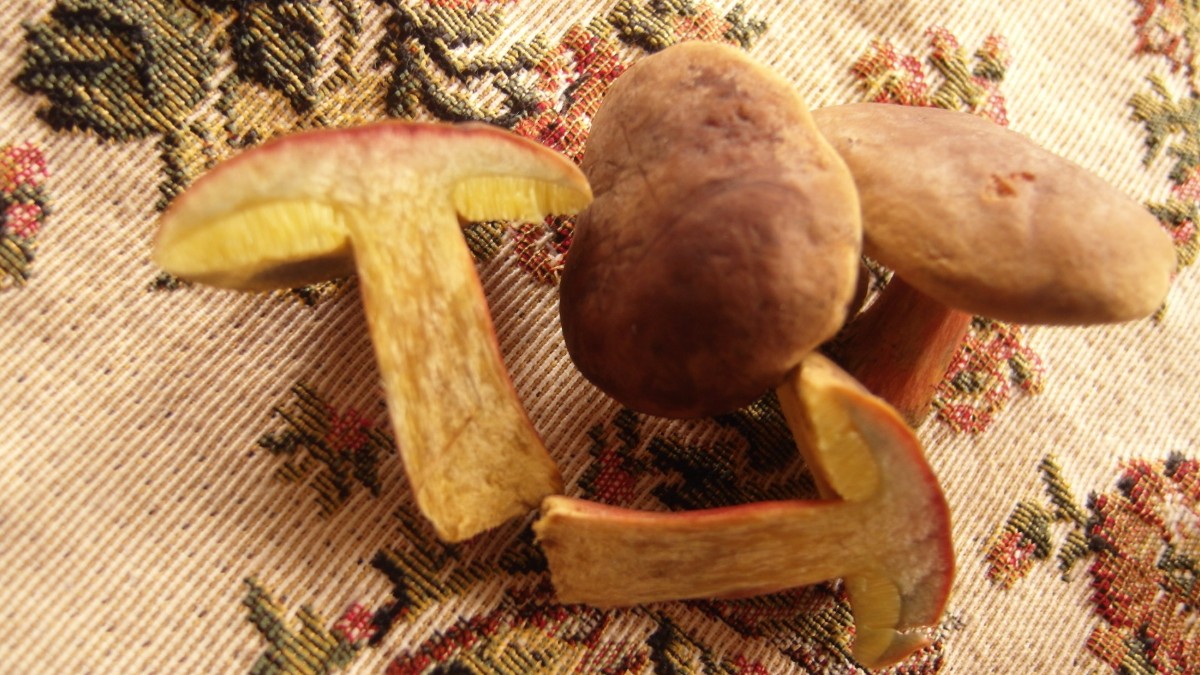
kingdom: Fungi
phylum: Basidiomycota
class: Agaricomycetes
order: Boletales
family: Boletaceae
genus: Hortiboletus
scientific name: Hortiboletus bubalinus
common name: aurora-rørhat
